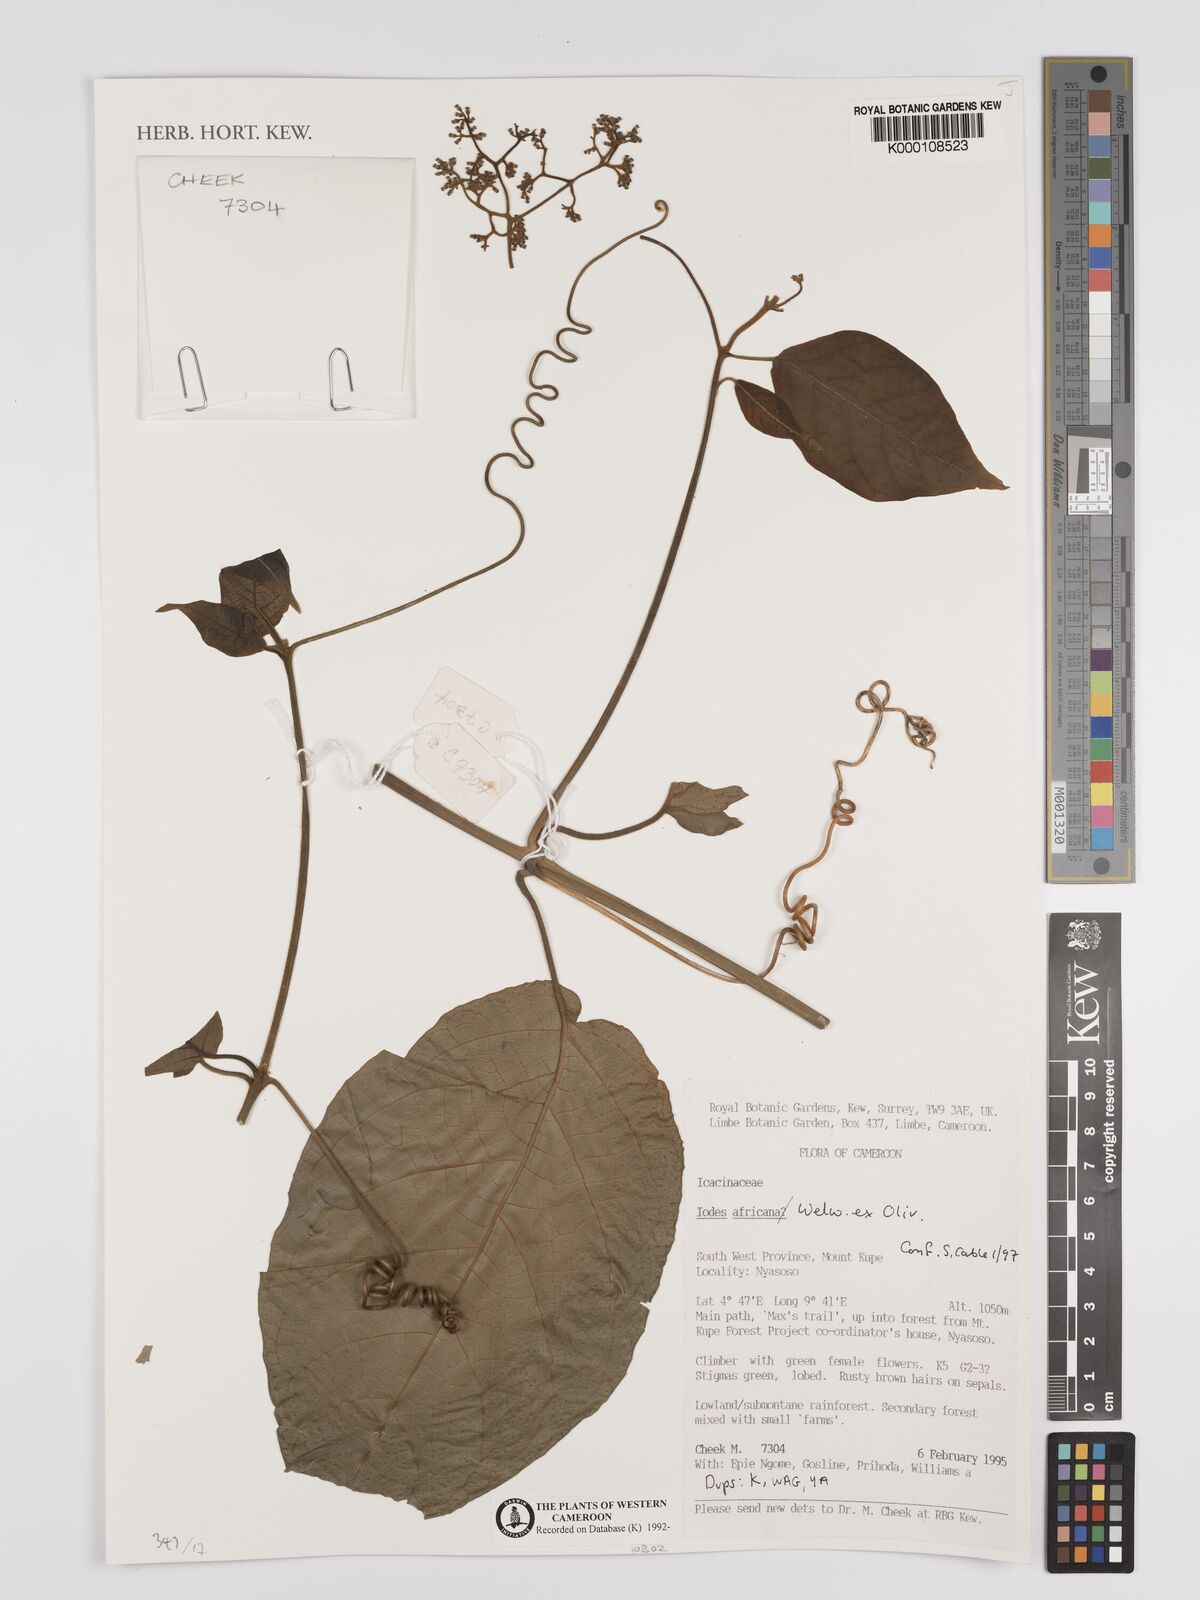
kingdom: Plantae
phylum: Tracheophyta
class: Magnoliopsida
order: Icacinales
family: Icacinaceae
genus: Iodes
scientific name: Iodes africana
